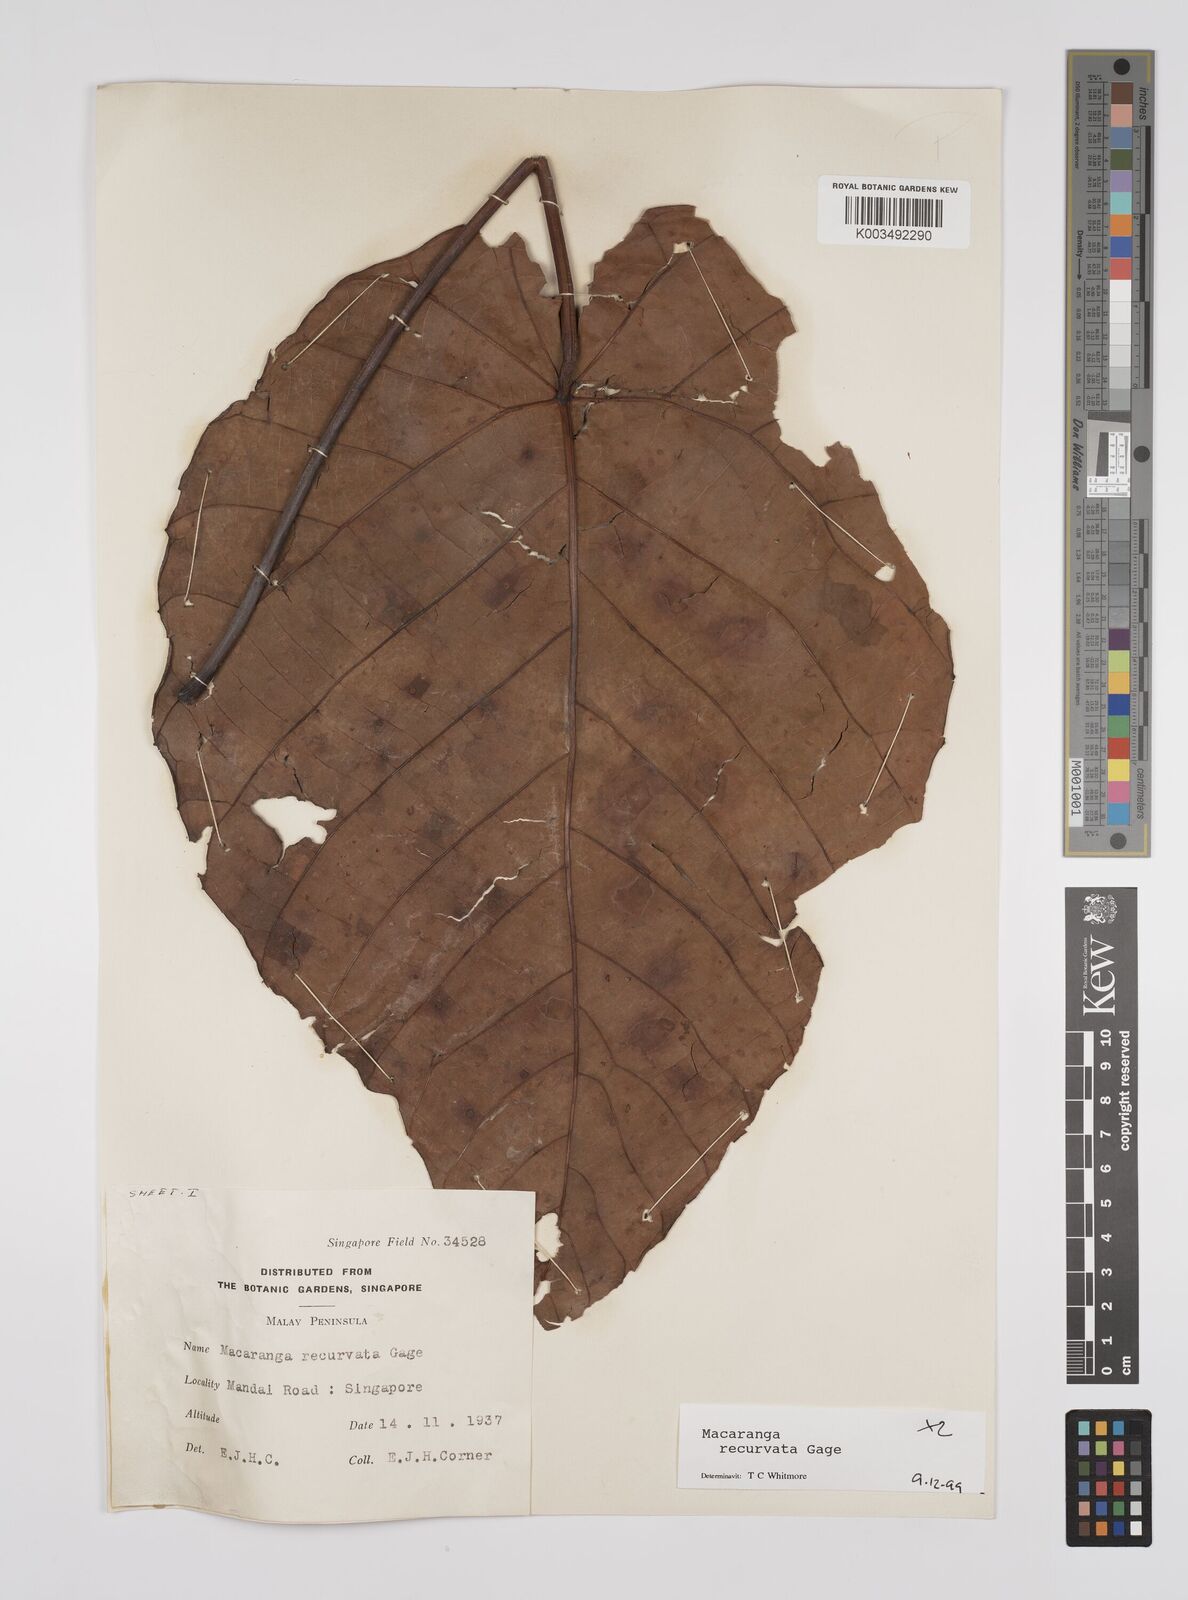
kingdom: Plantae
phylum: Tracheophyta
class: Magnoliopsida
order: Malpighiales
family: Euphorbiaceae
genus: Macaranga
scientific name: Macaranga recurvata
